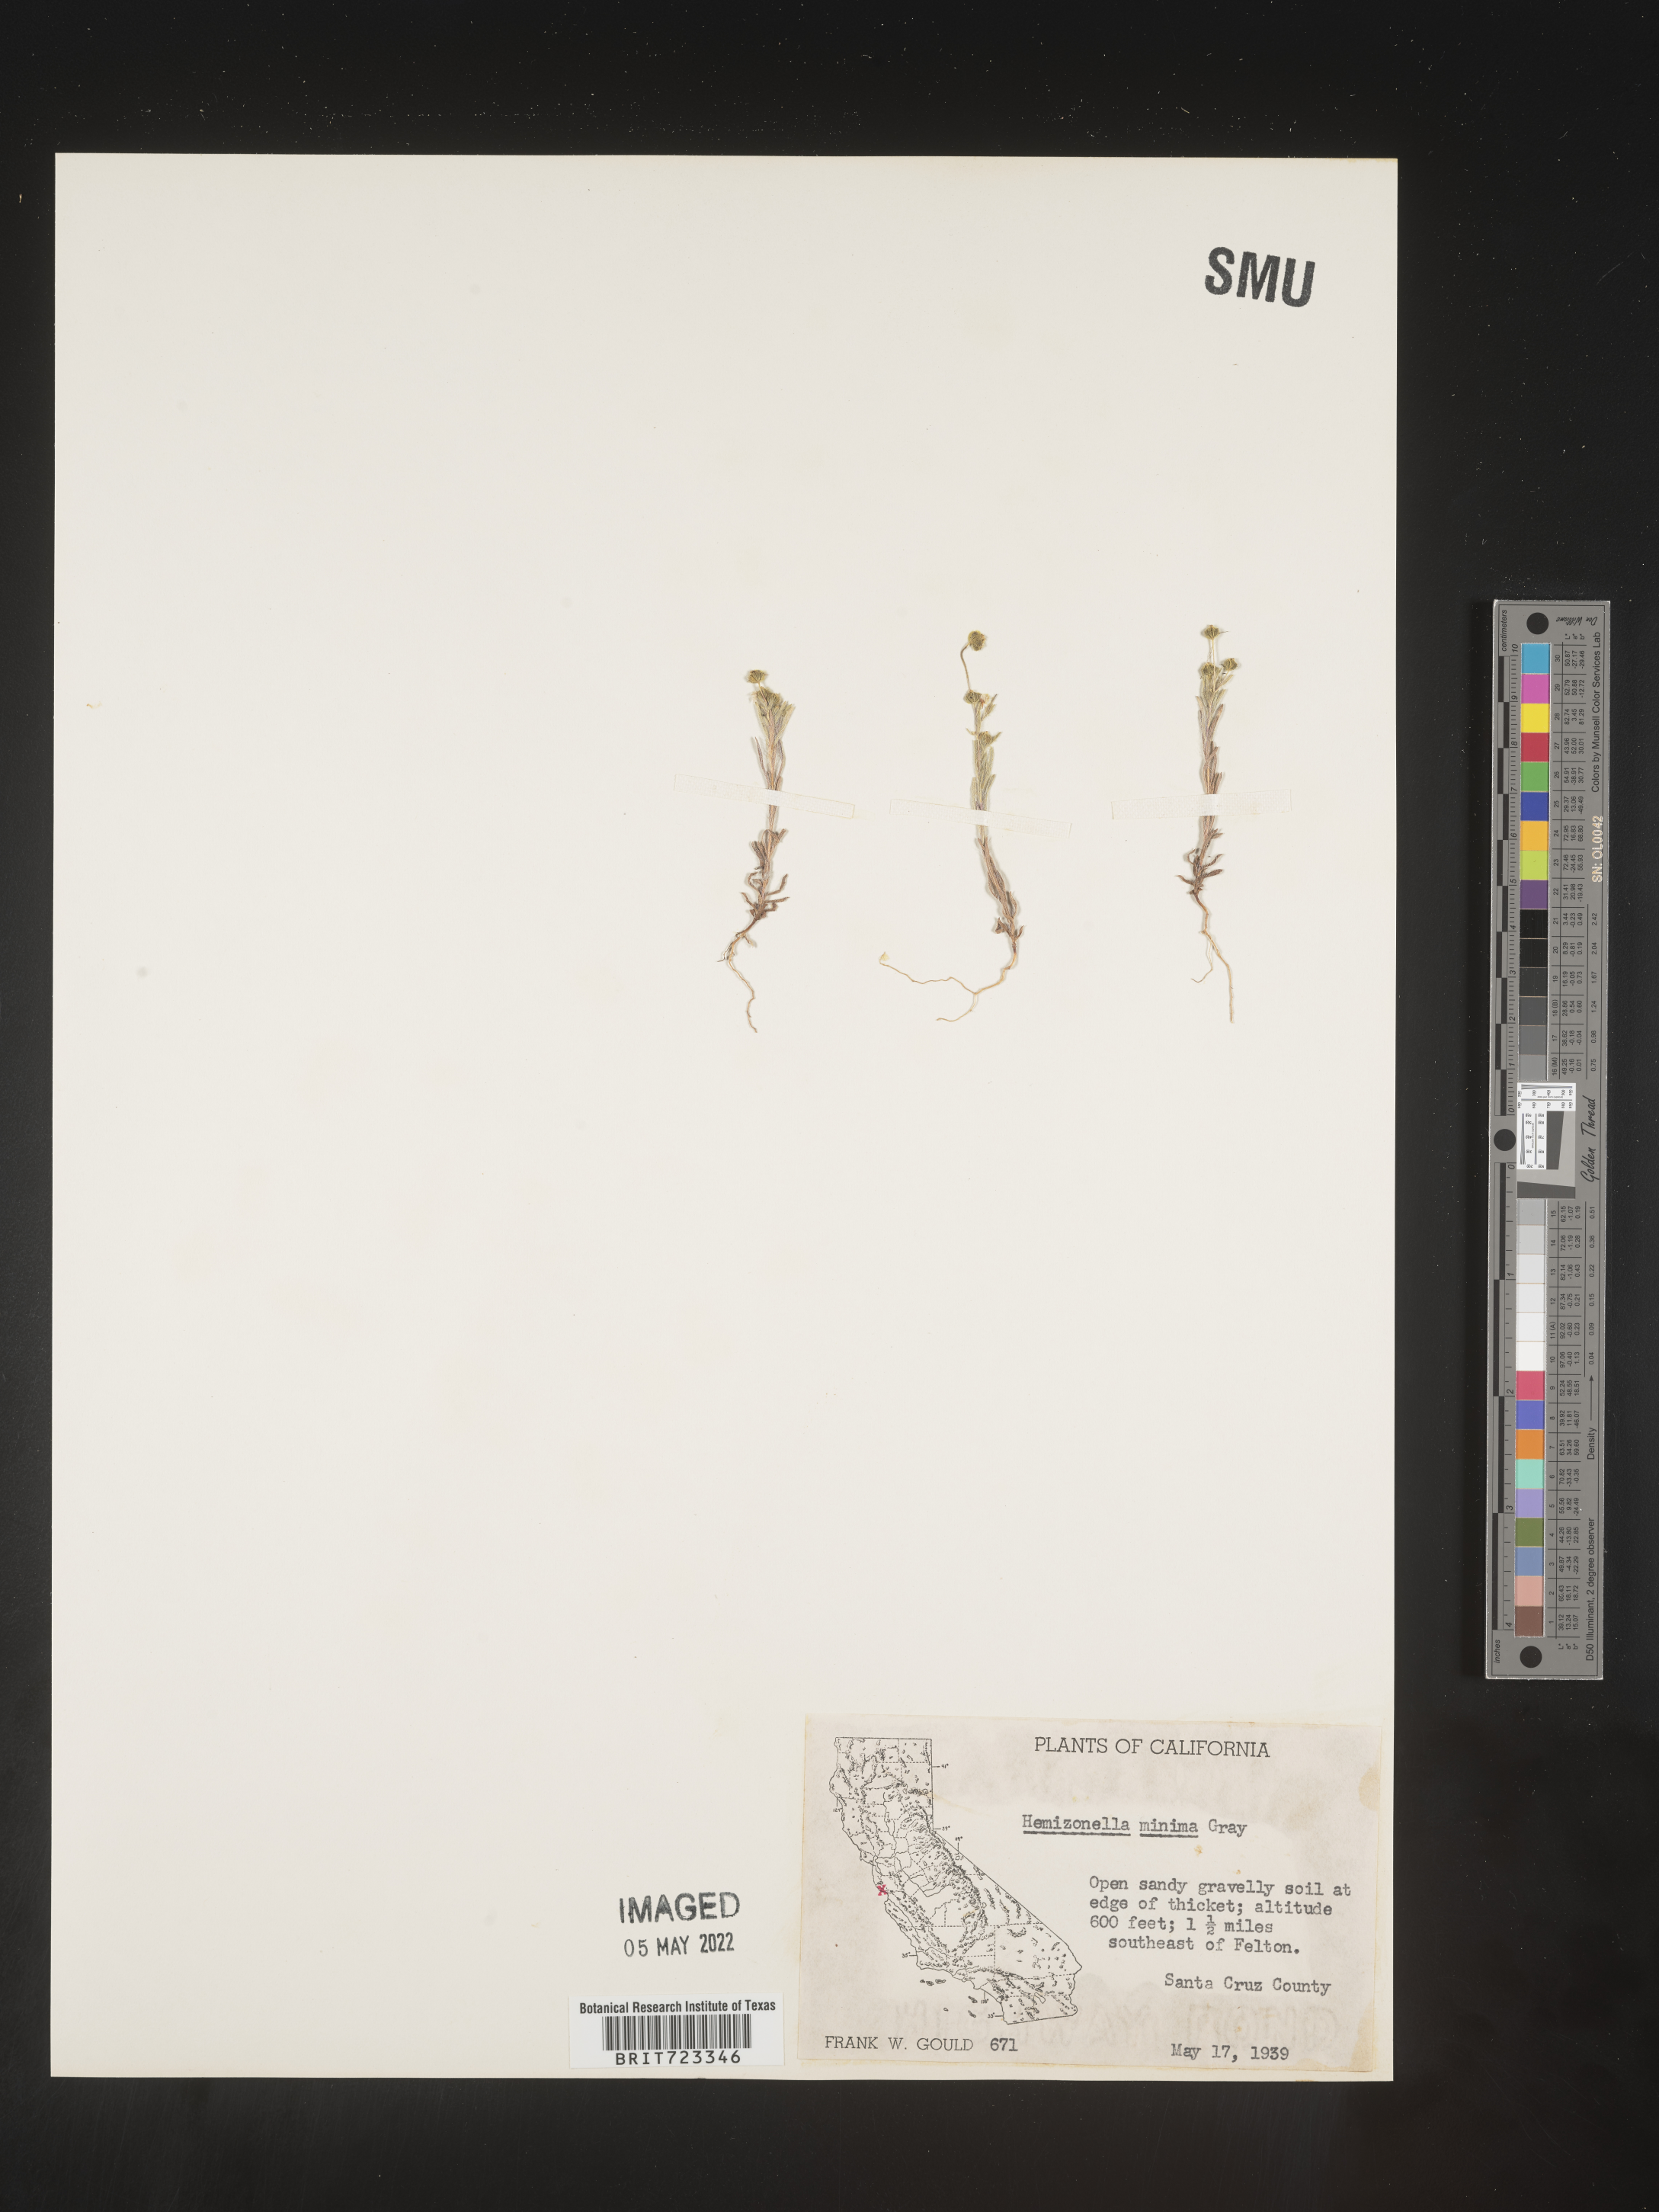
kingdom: Plantae
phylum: Tracheophyta
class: Magnoliopsida
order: Asterales
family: Asteraceae
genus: Hemizonella
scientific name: Hemizonella
